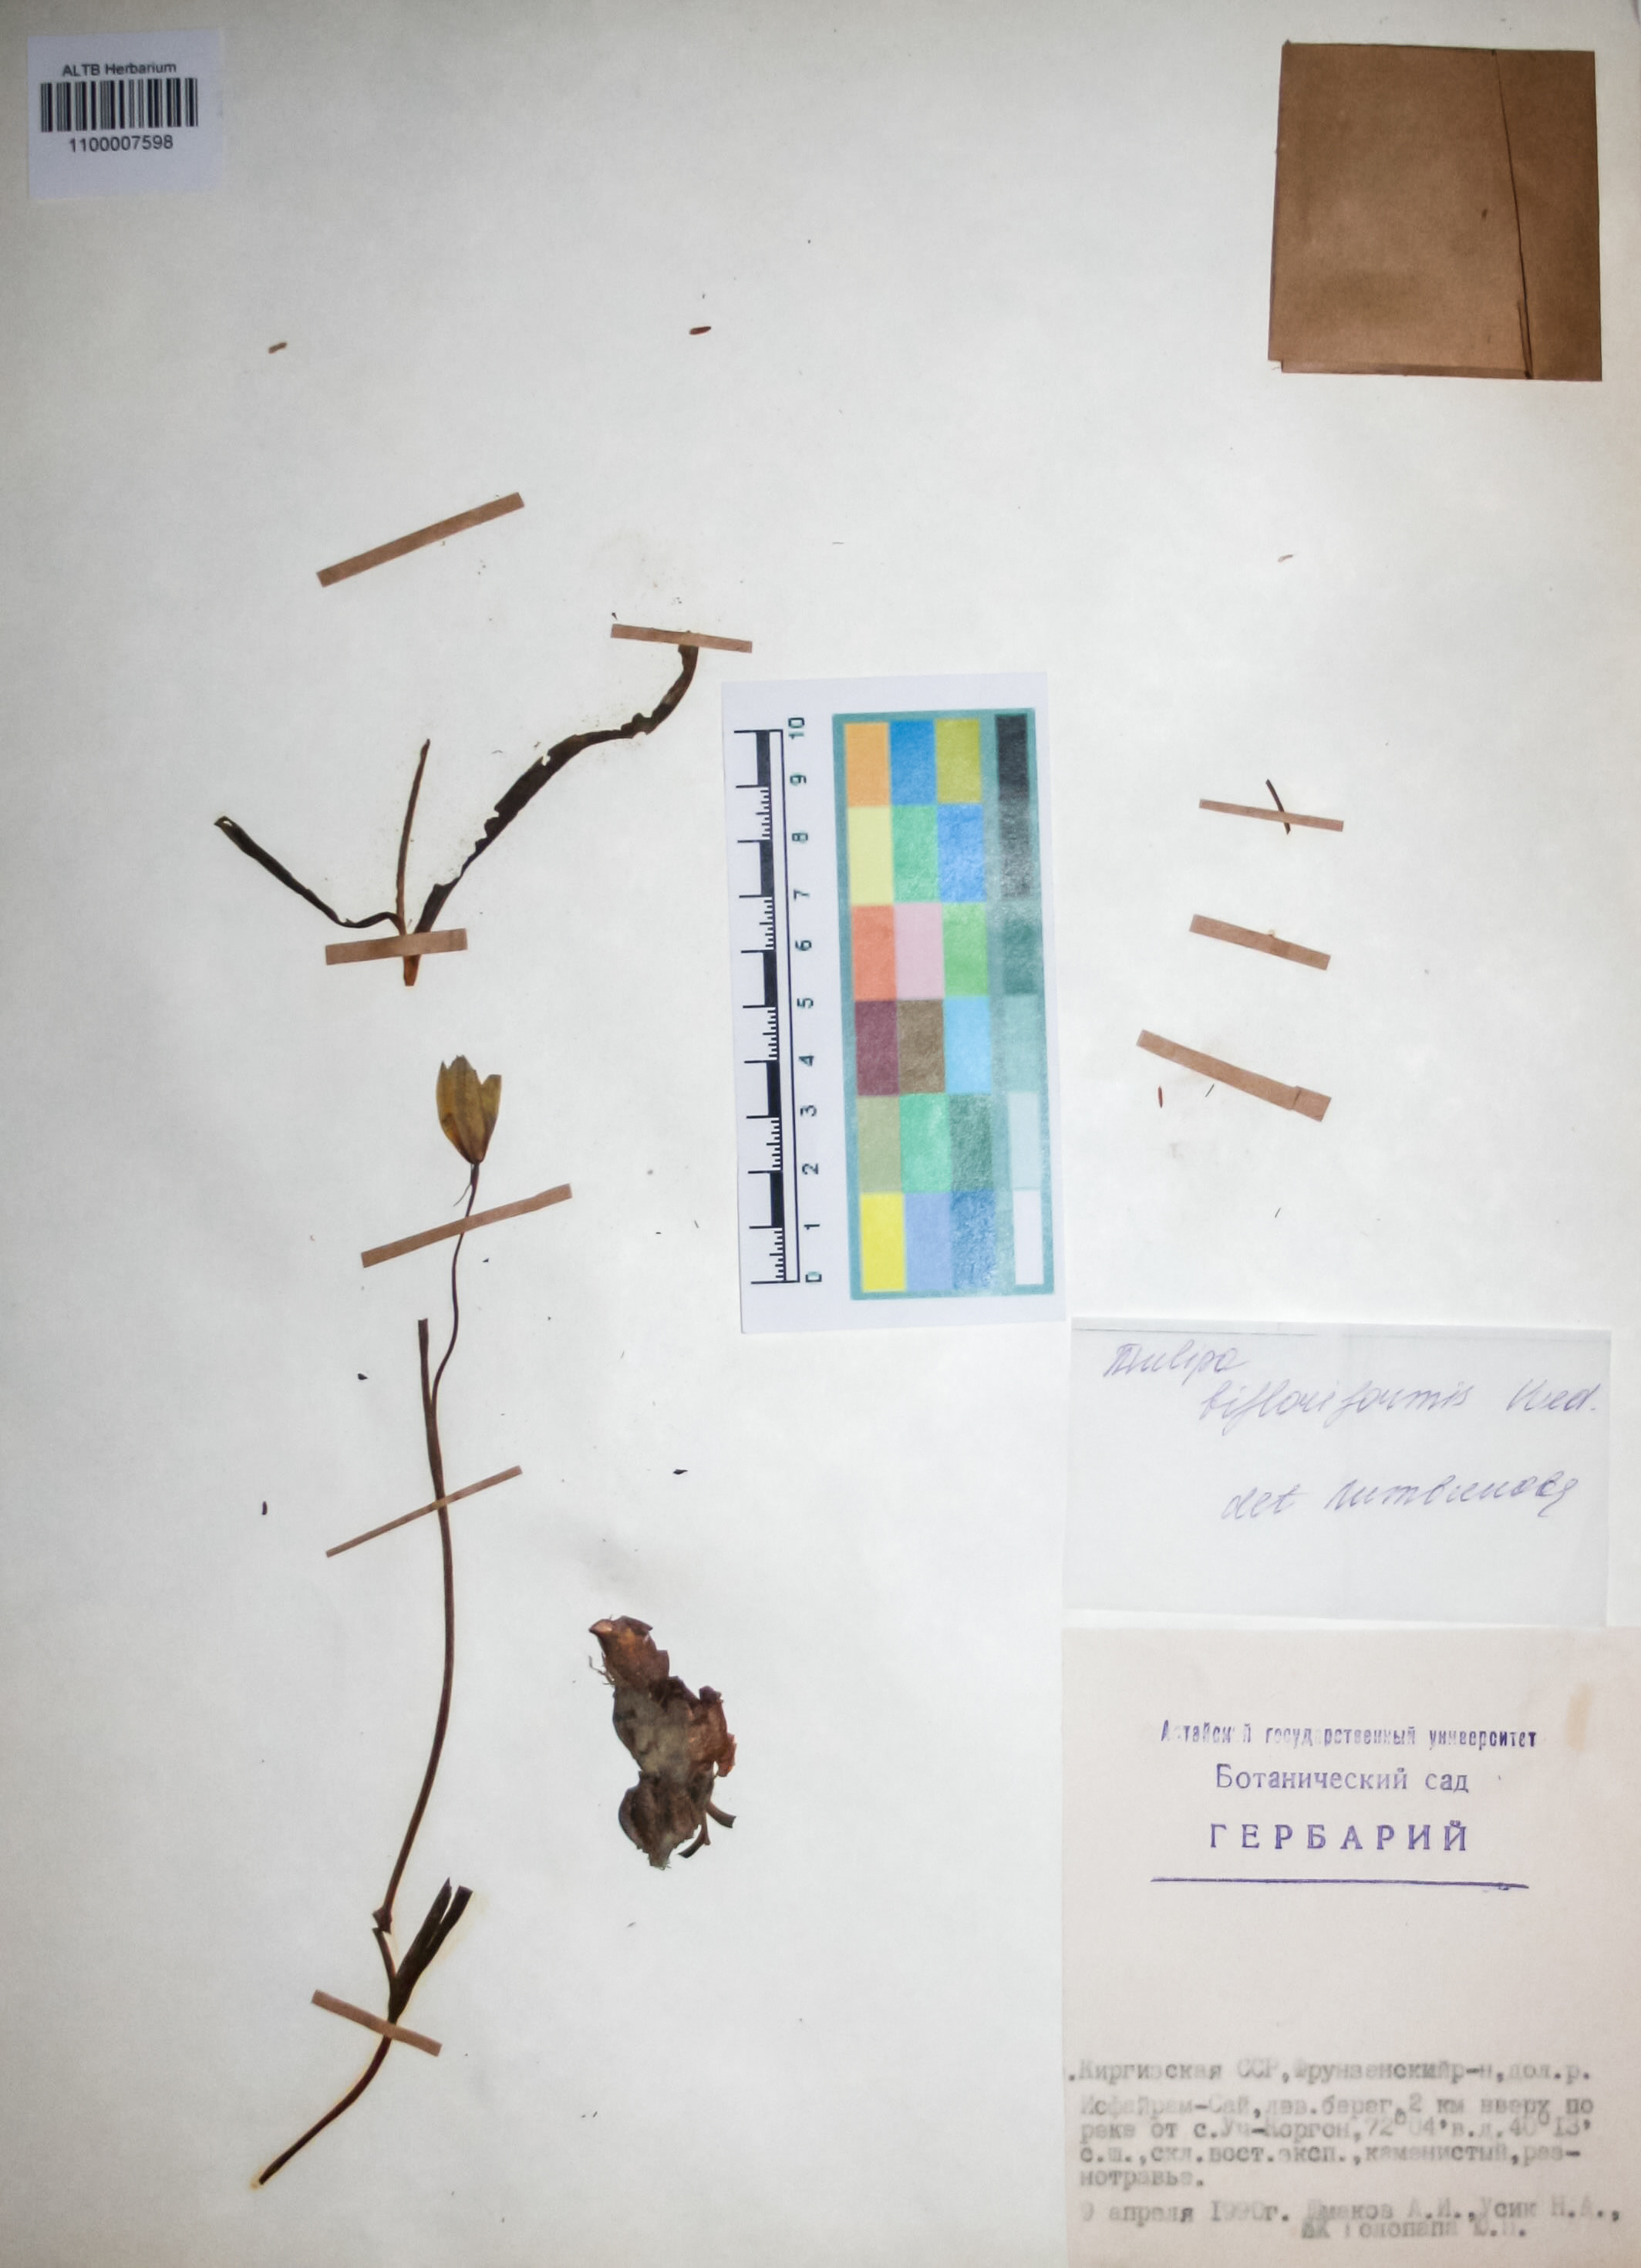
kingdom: Plantae
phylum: Tracheophyta
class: Liliopsida
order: Liliales
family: Liliaceae
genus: Tulipa
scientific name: Tulipa bifloriformis
